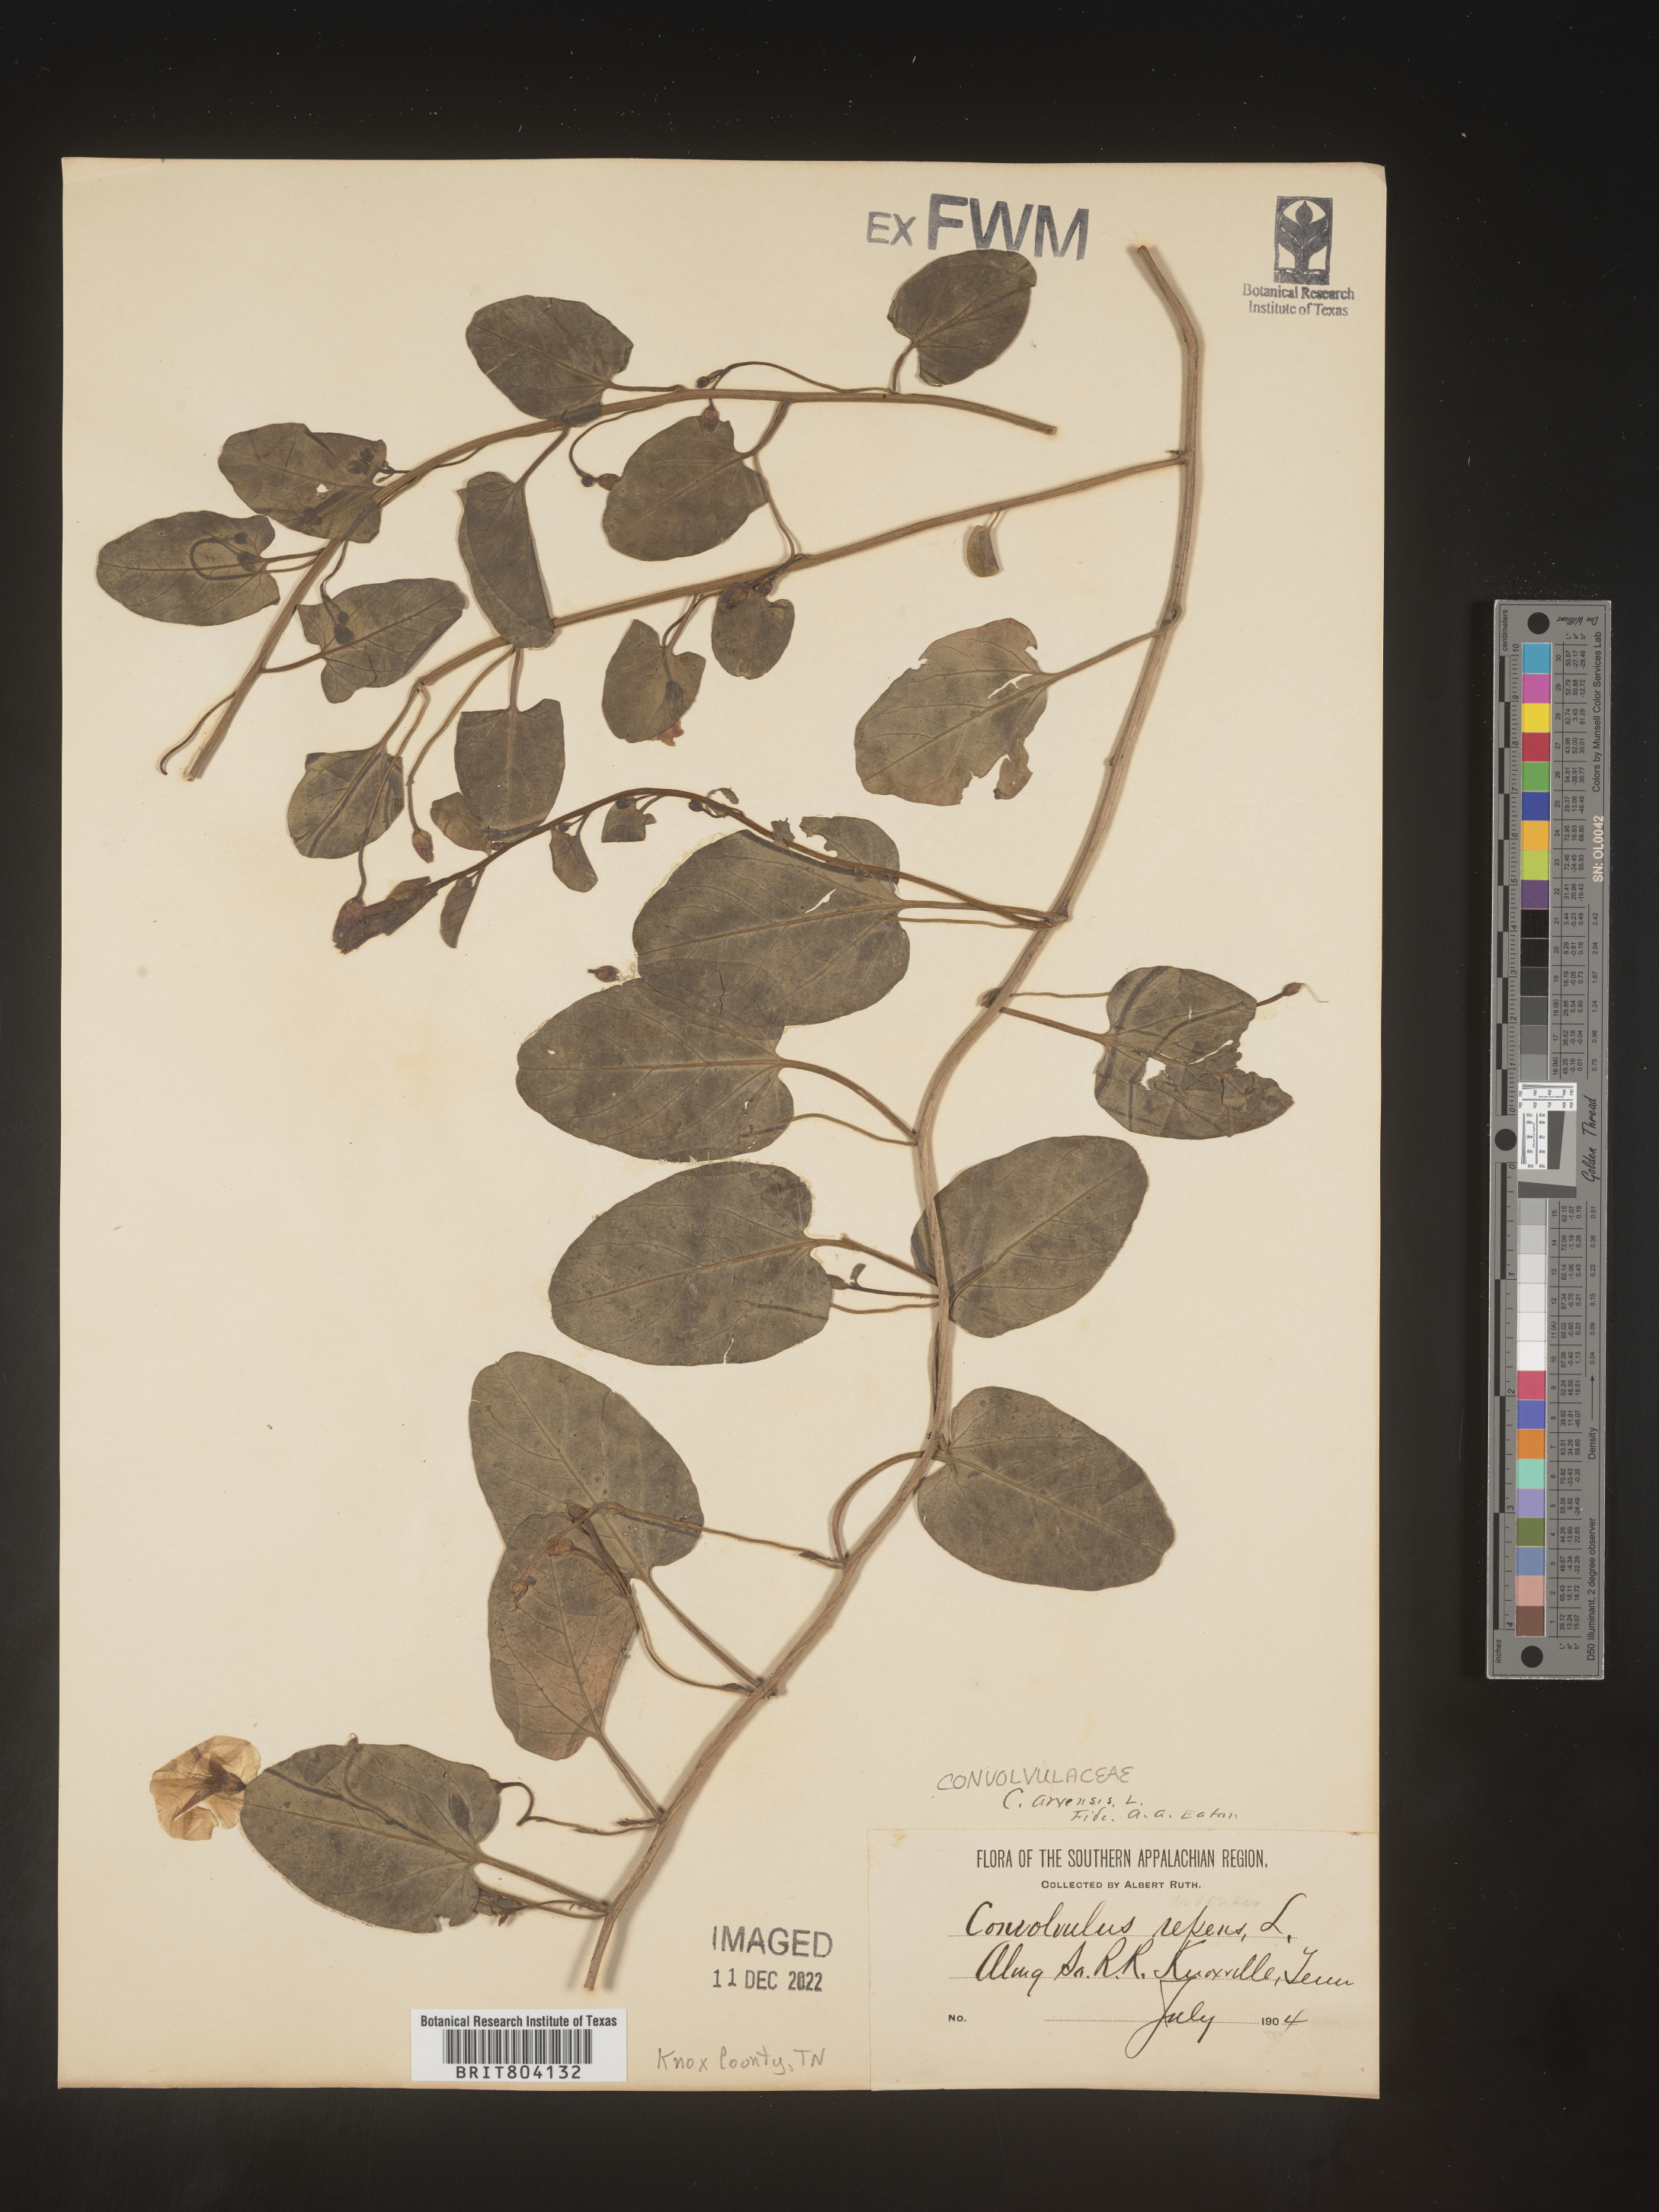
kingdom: Plantae
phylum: Tracheophyta
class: Magnoliopsida
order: Solanales
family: Convolvulaceae
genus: Convolvulus
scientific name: Convolvulus arvensis
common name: Field bindweed
